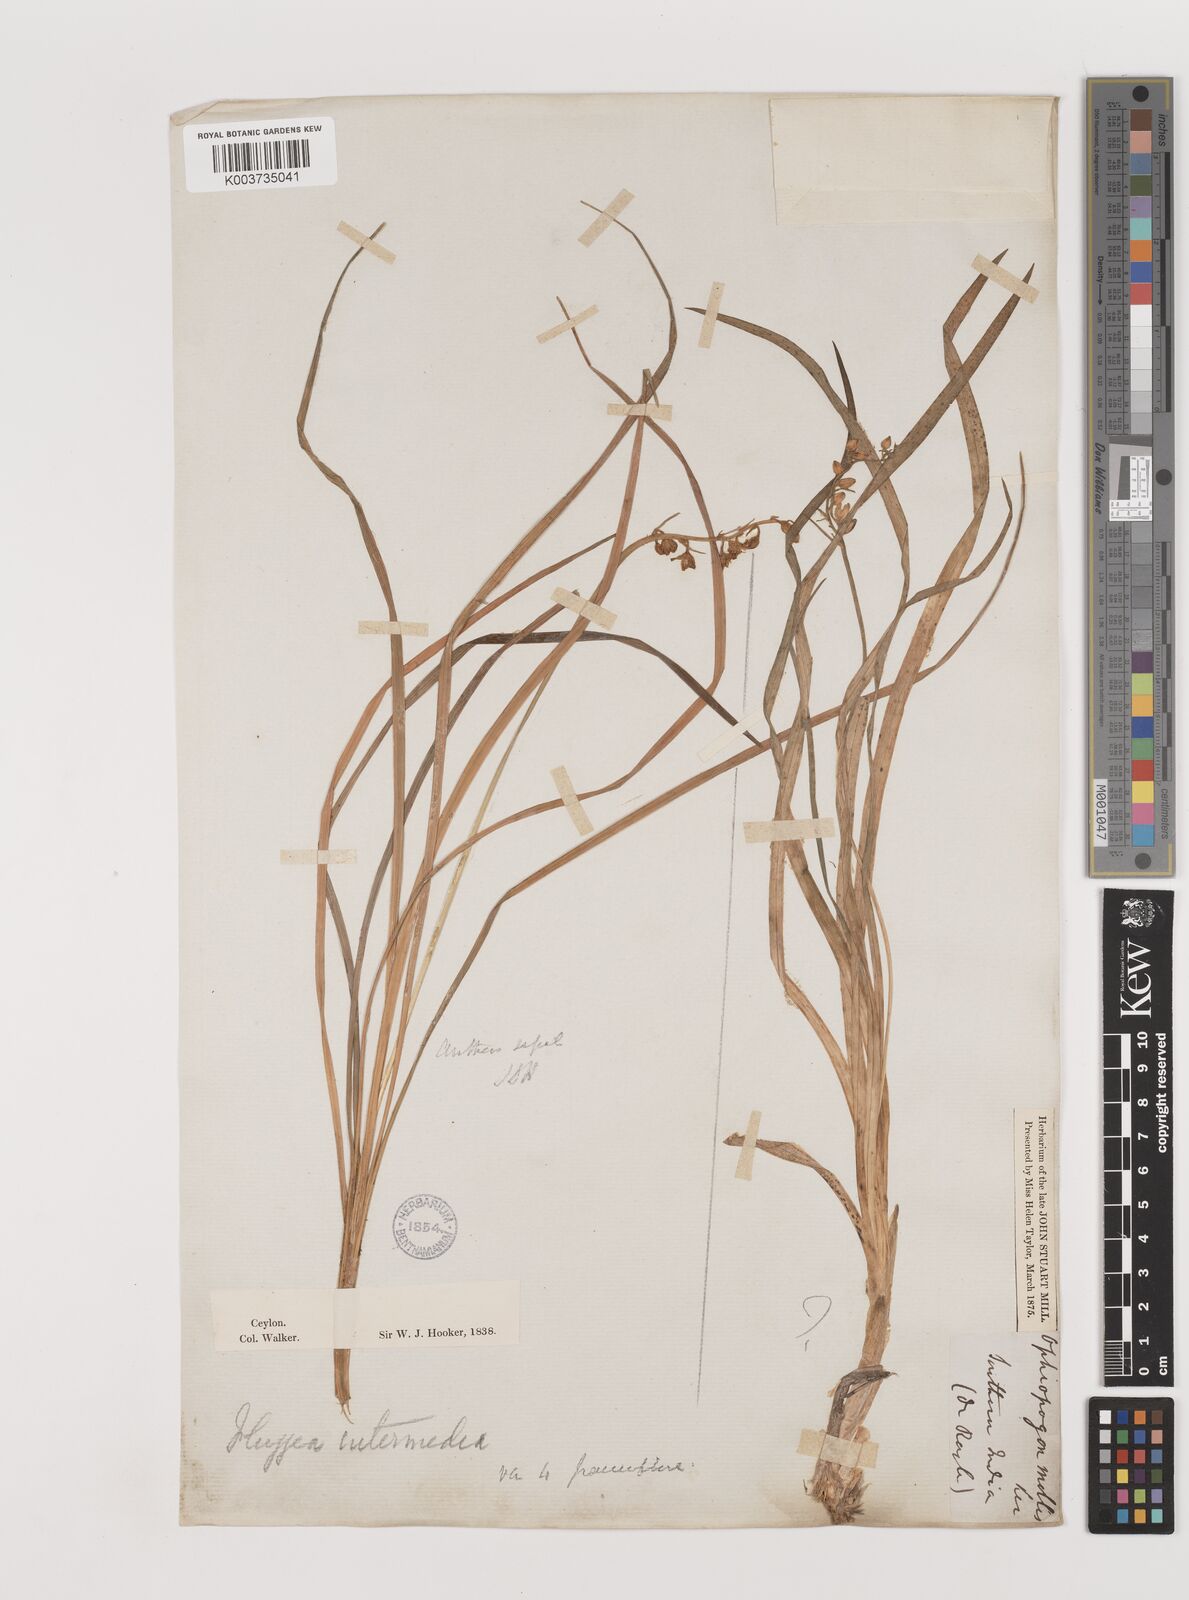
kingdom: Plantae
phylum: Tracheophyta
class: Liliopsida
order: Asparagales
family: Asparagaceae
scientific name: Asparagaceae
